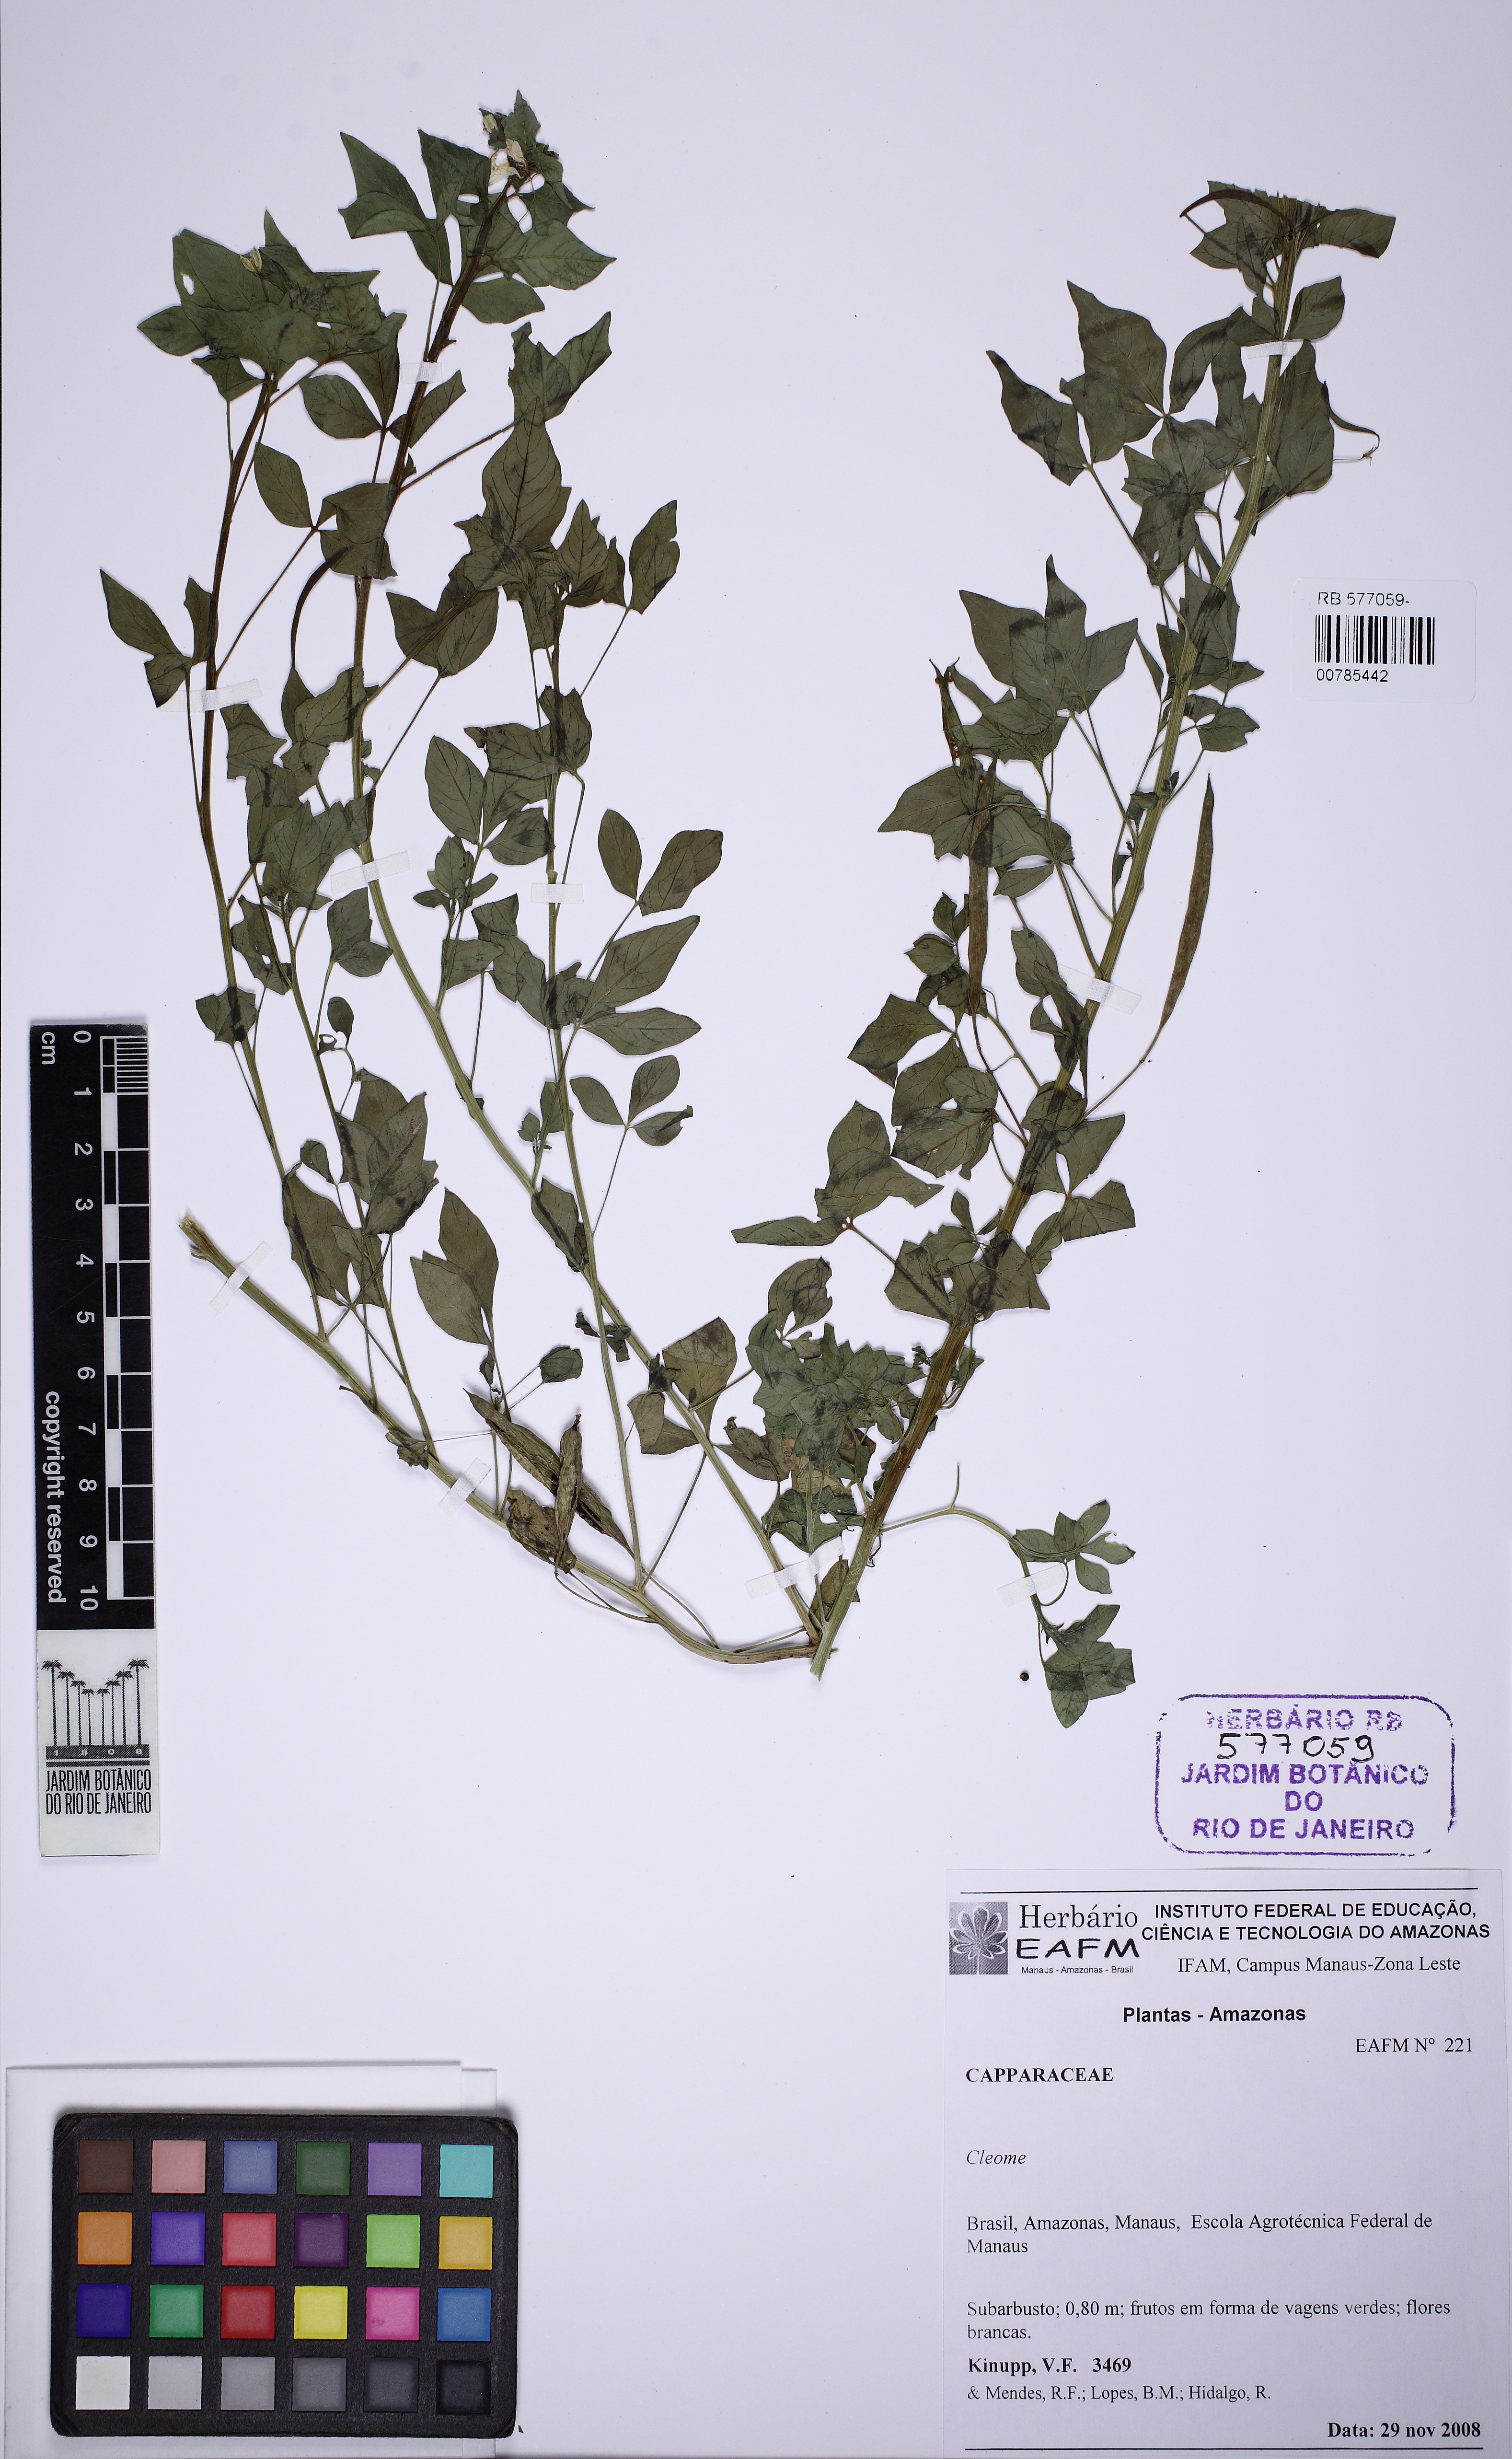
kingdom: Plantae
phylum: Tracheophyta
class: Magnoliopsida
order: Brassicales
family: Cleomaceae
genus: Tarenaya
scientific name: Tarenaya aculeata
